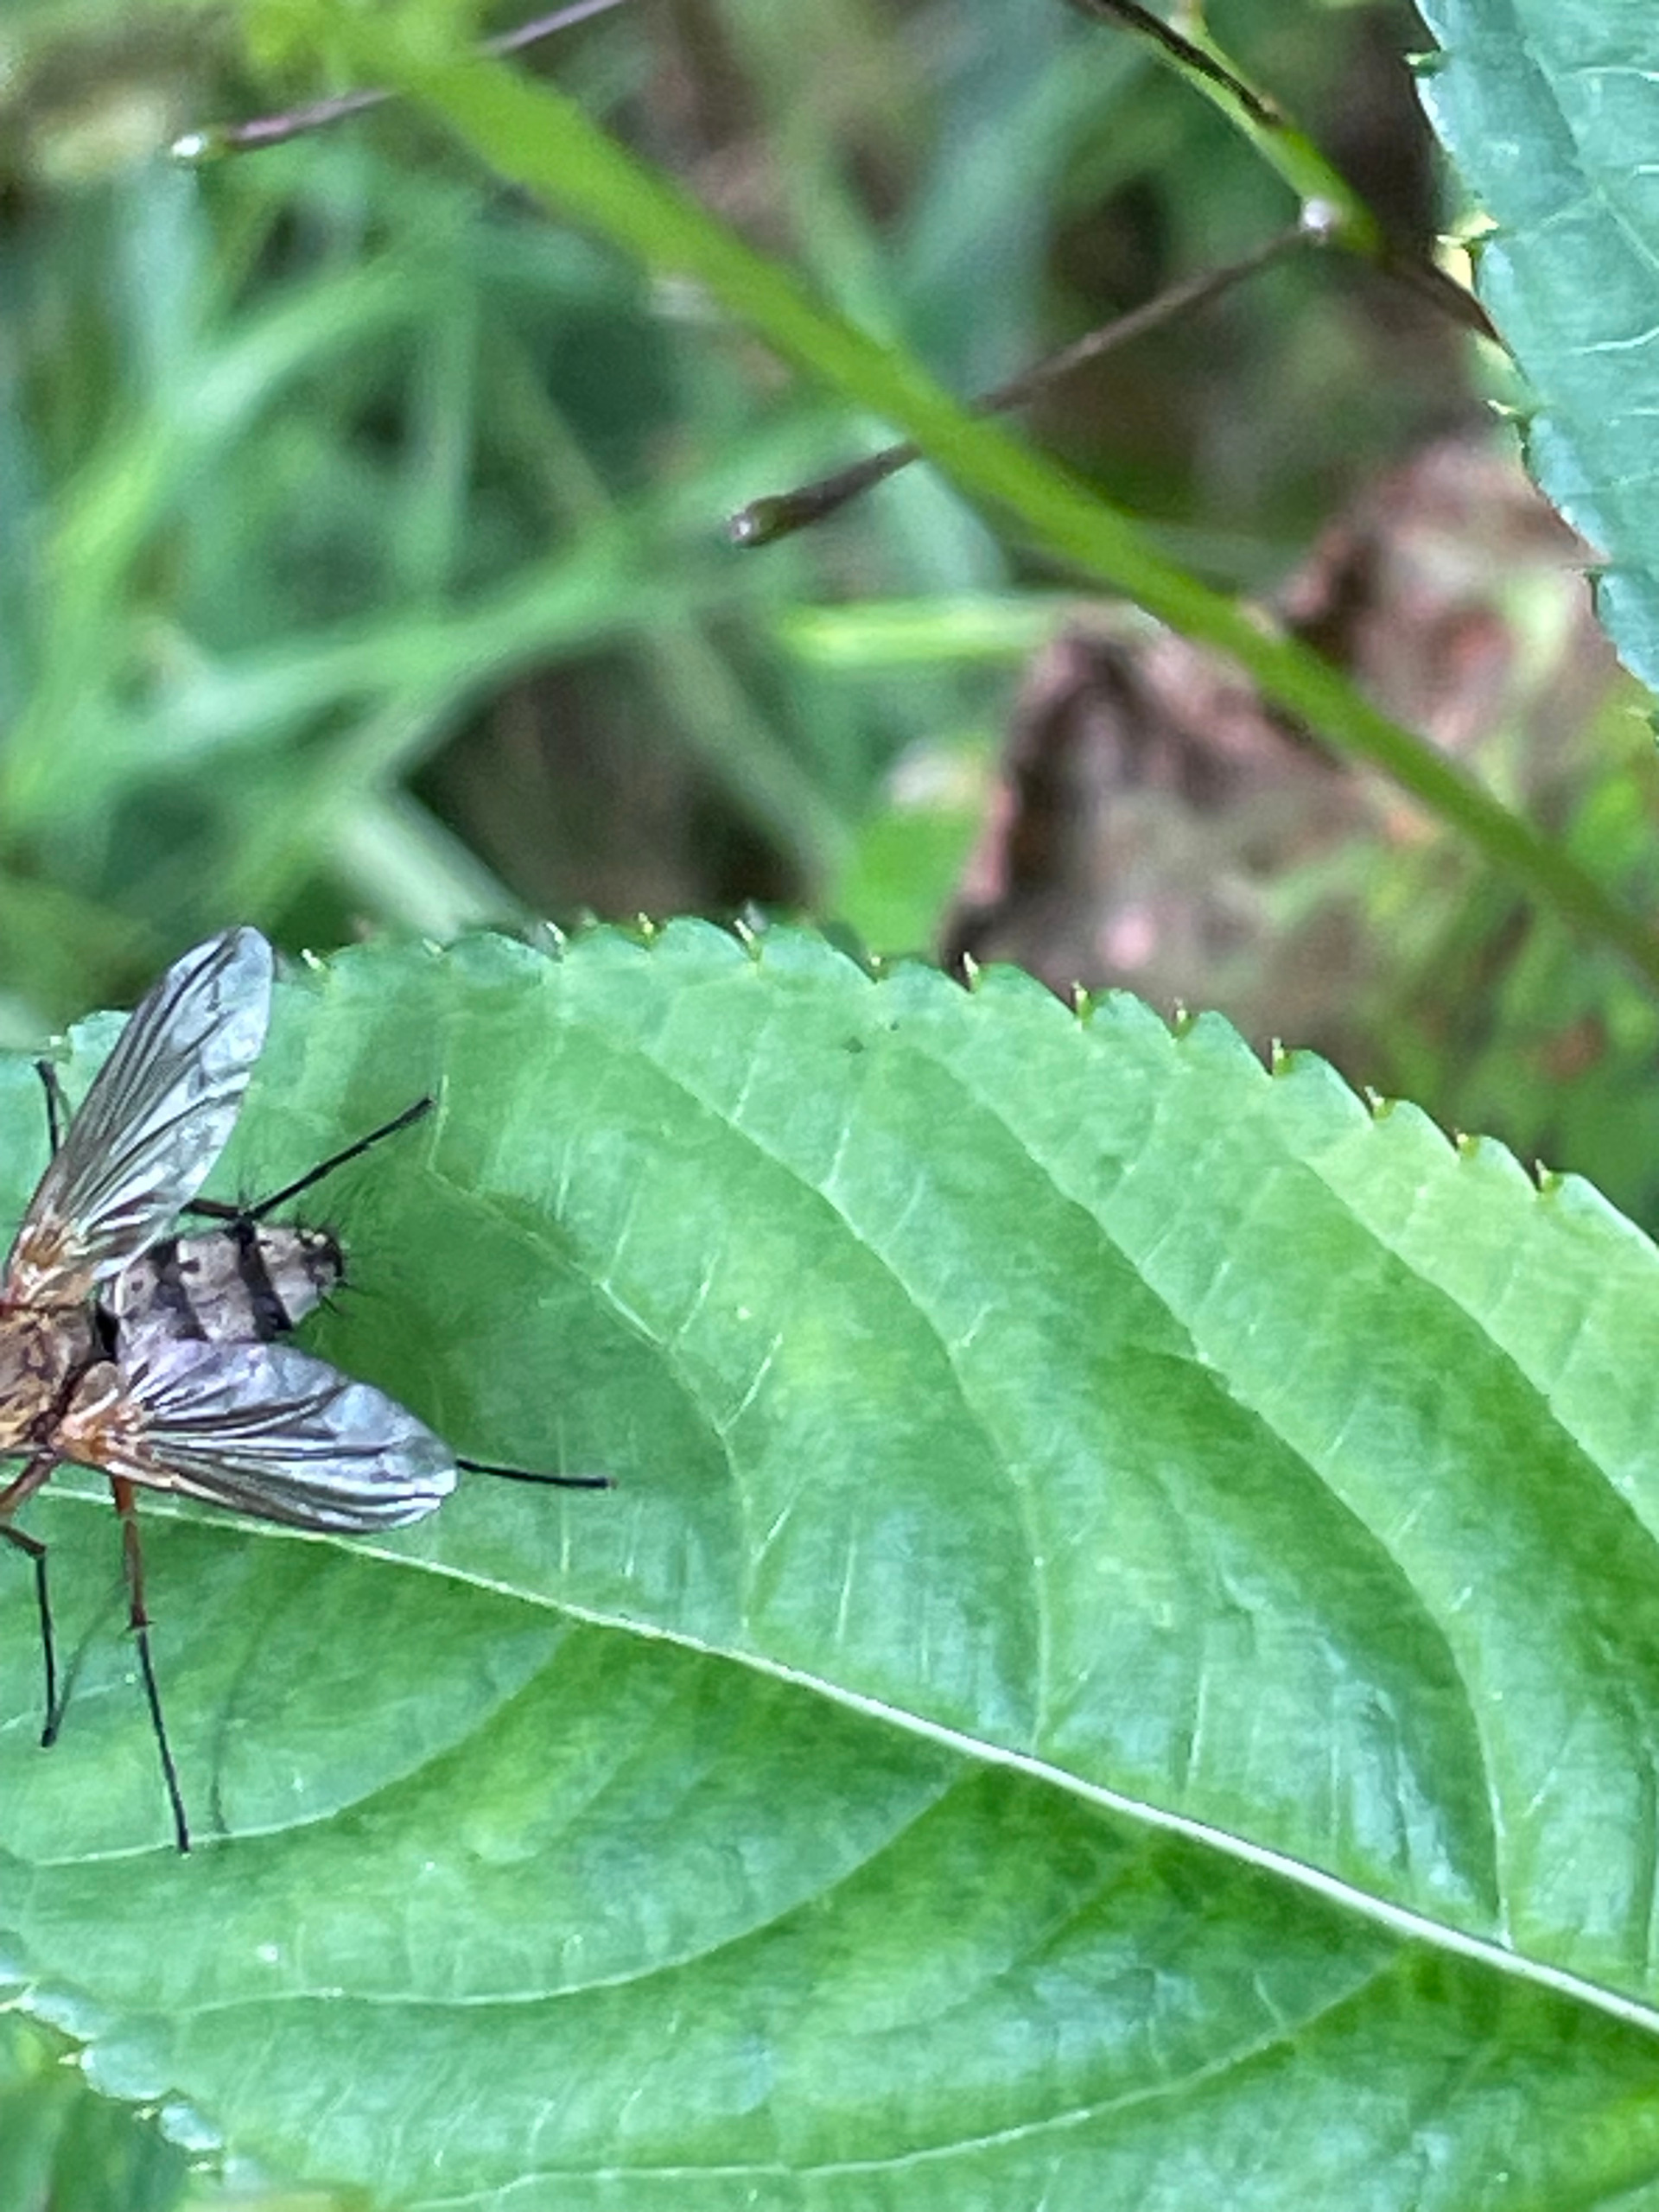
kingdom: Animalia
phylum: Arthropoda
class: Insecta
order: Diptera
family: Tachinidae
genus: Dexiosoma
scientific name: Dexiosoma caninum
